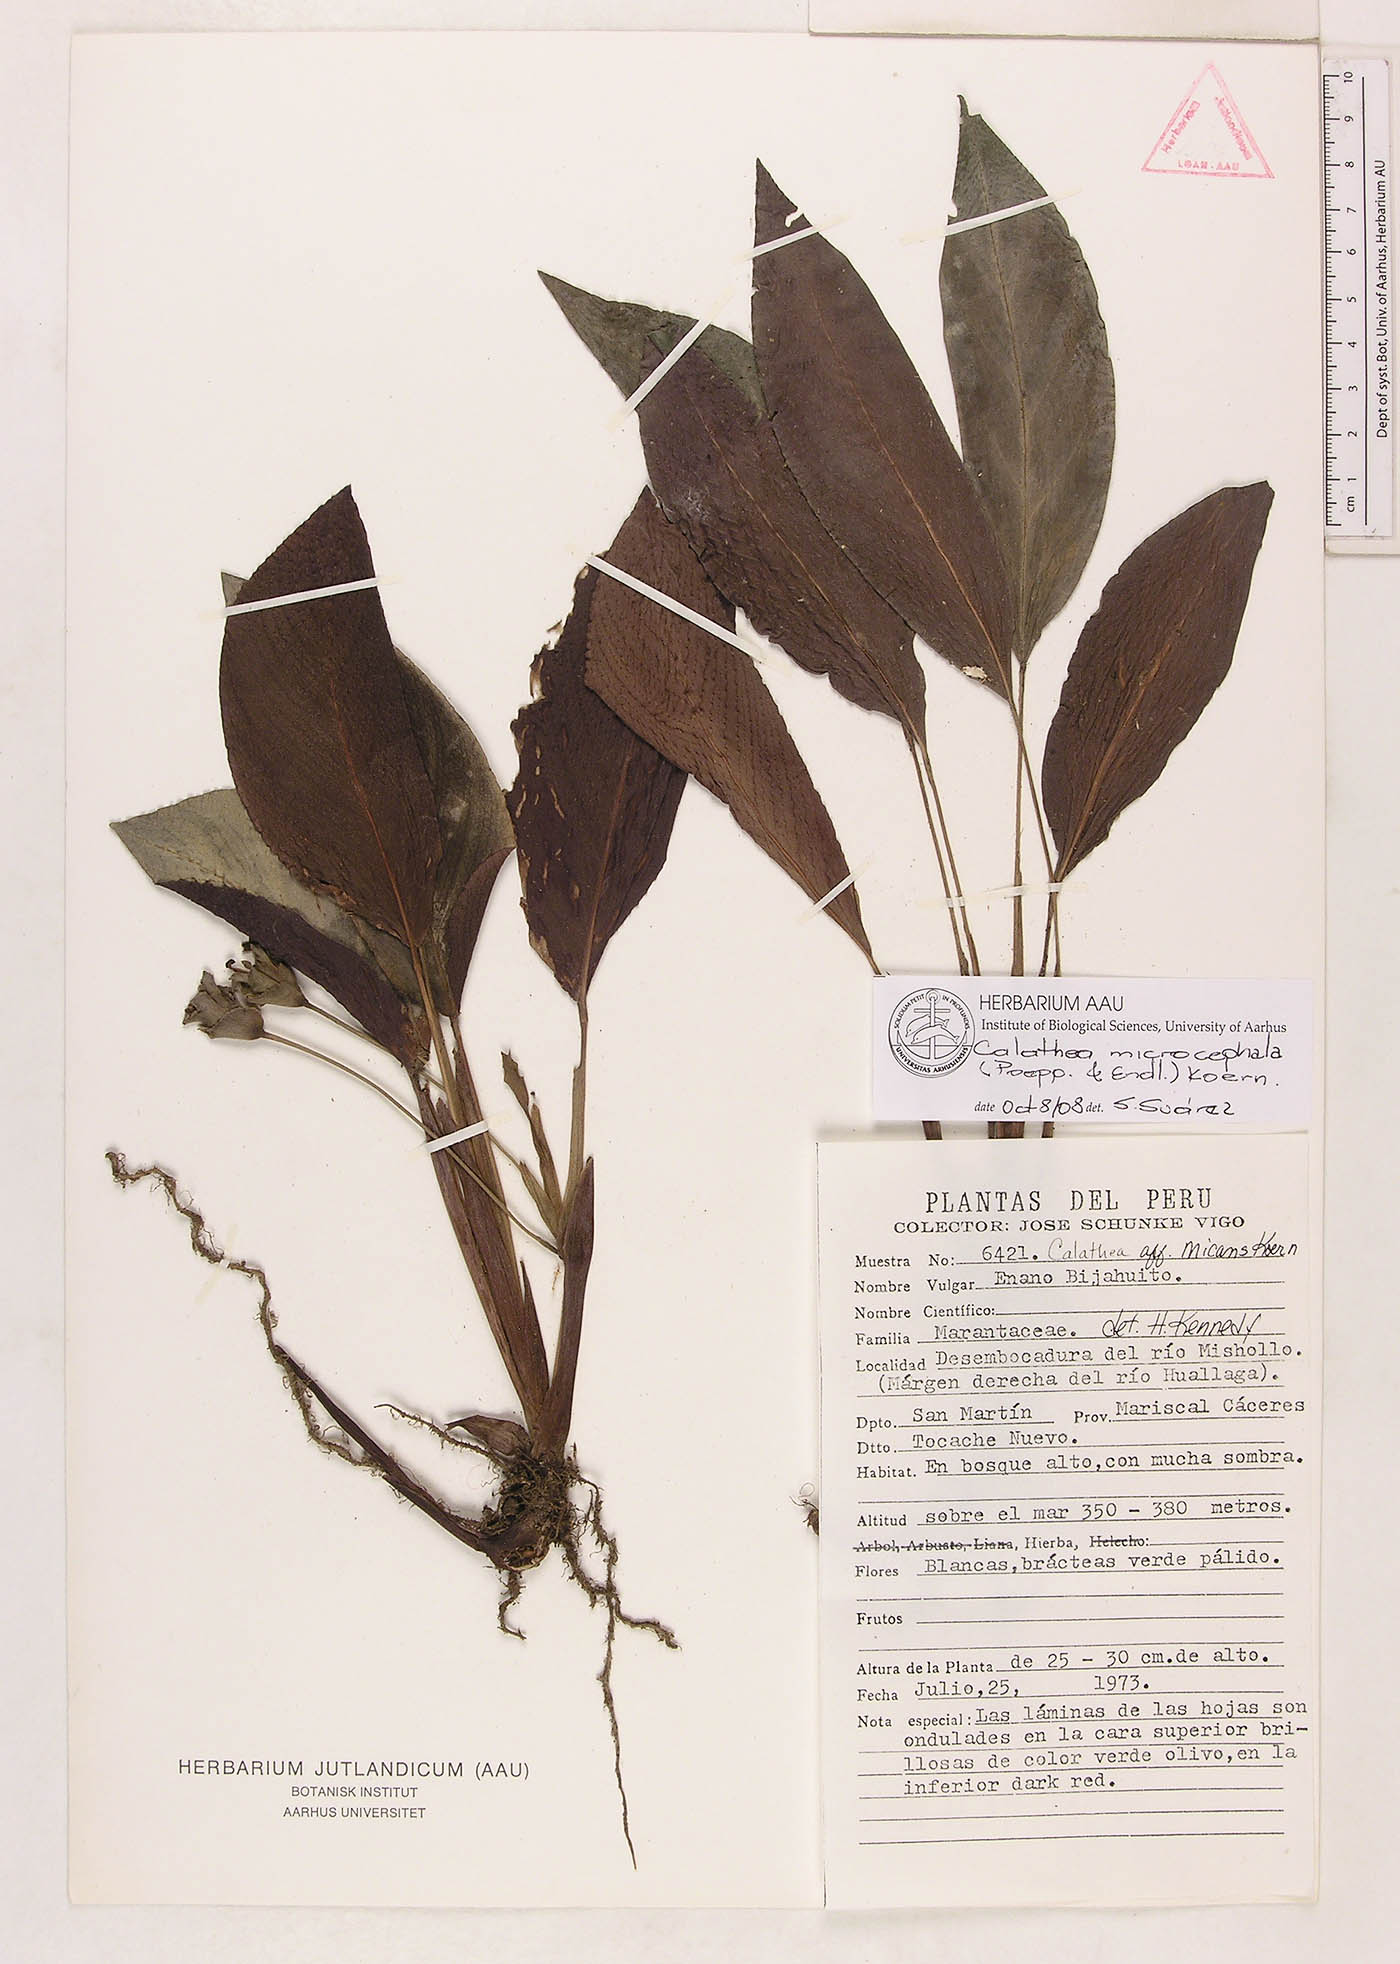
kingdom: Plantae
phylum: Tracheophyta
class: Liliopsida
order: Zingiberales
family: Marantaceae
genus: Goeppertia
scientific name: Goeppertia microcephala
